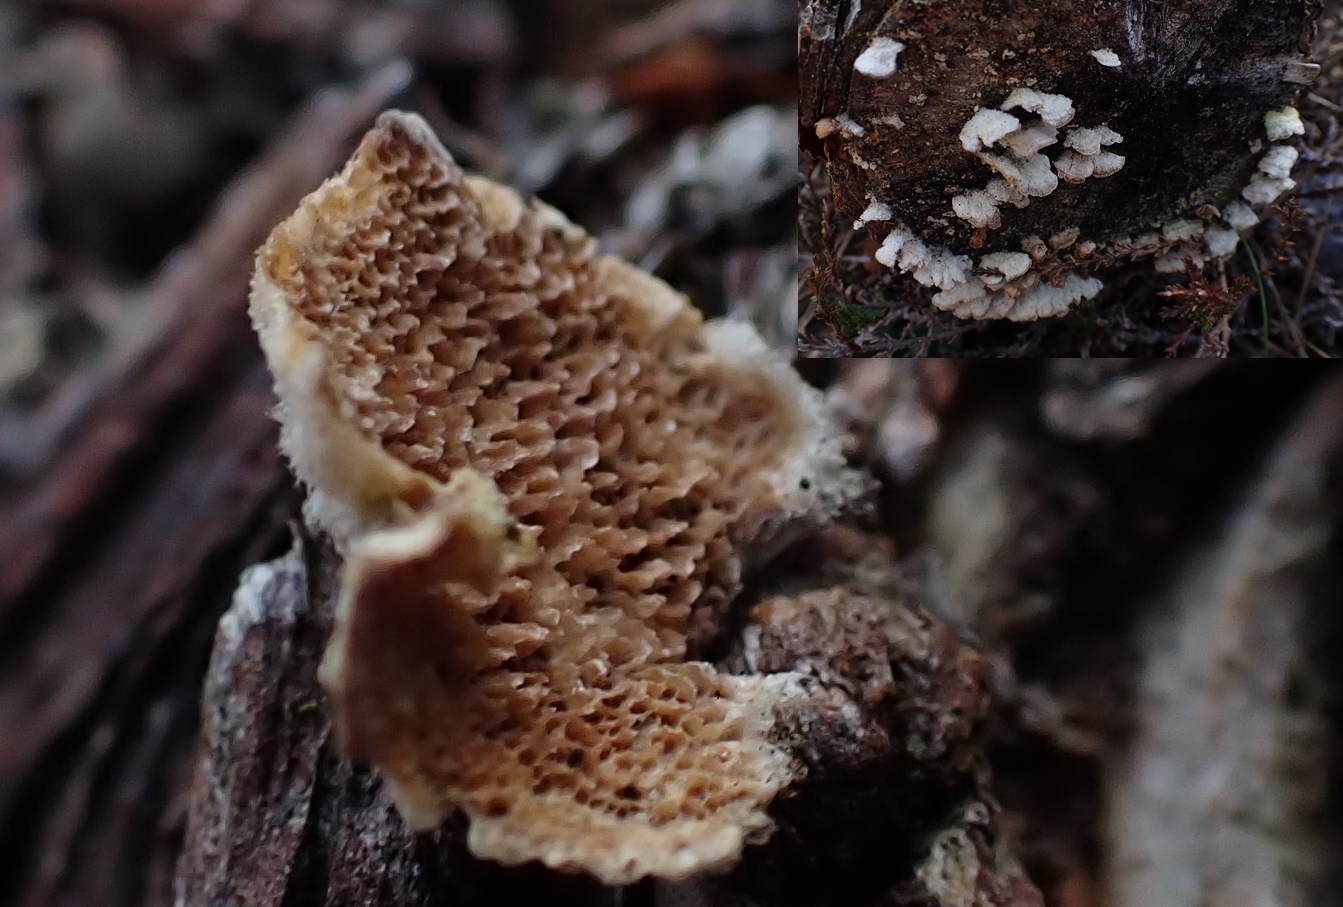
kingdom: Fungi
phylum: Basidiomycota
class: Agaricomycetes
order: Hymenochaetales
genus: Trichaptum
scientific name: Trichaptum fuscoviolaceum
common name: tandet violporesvamp
